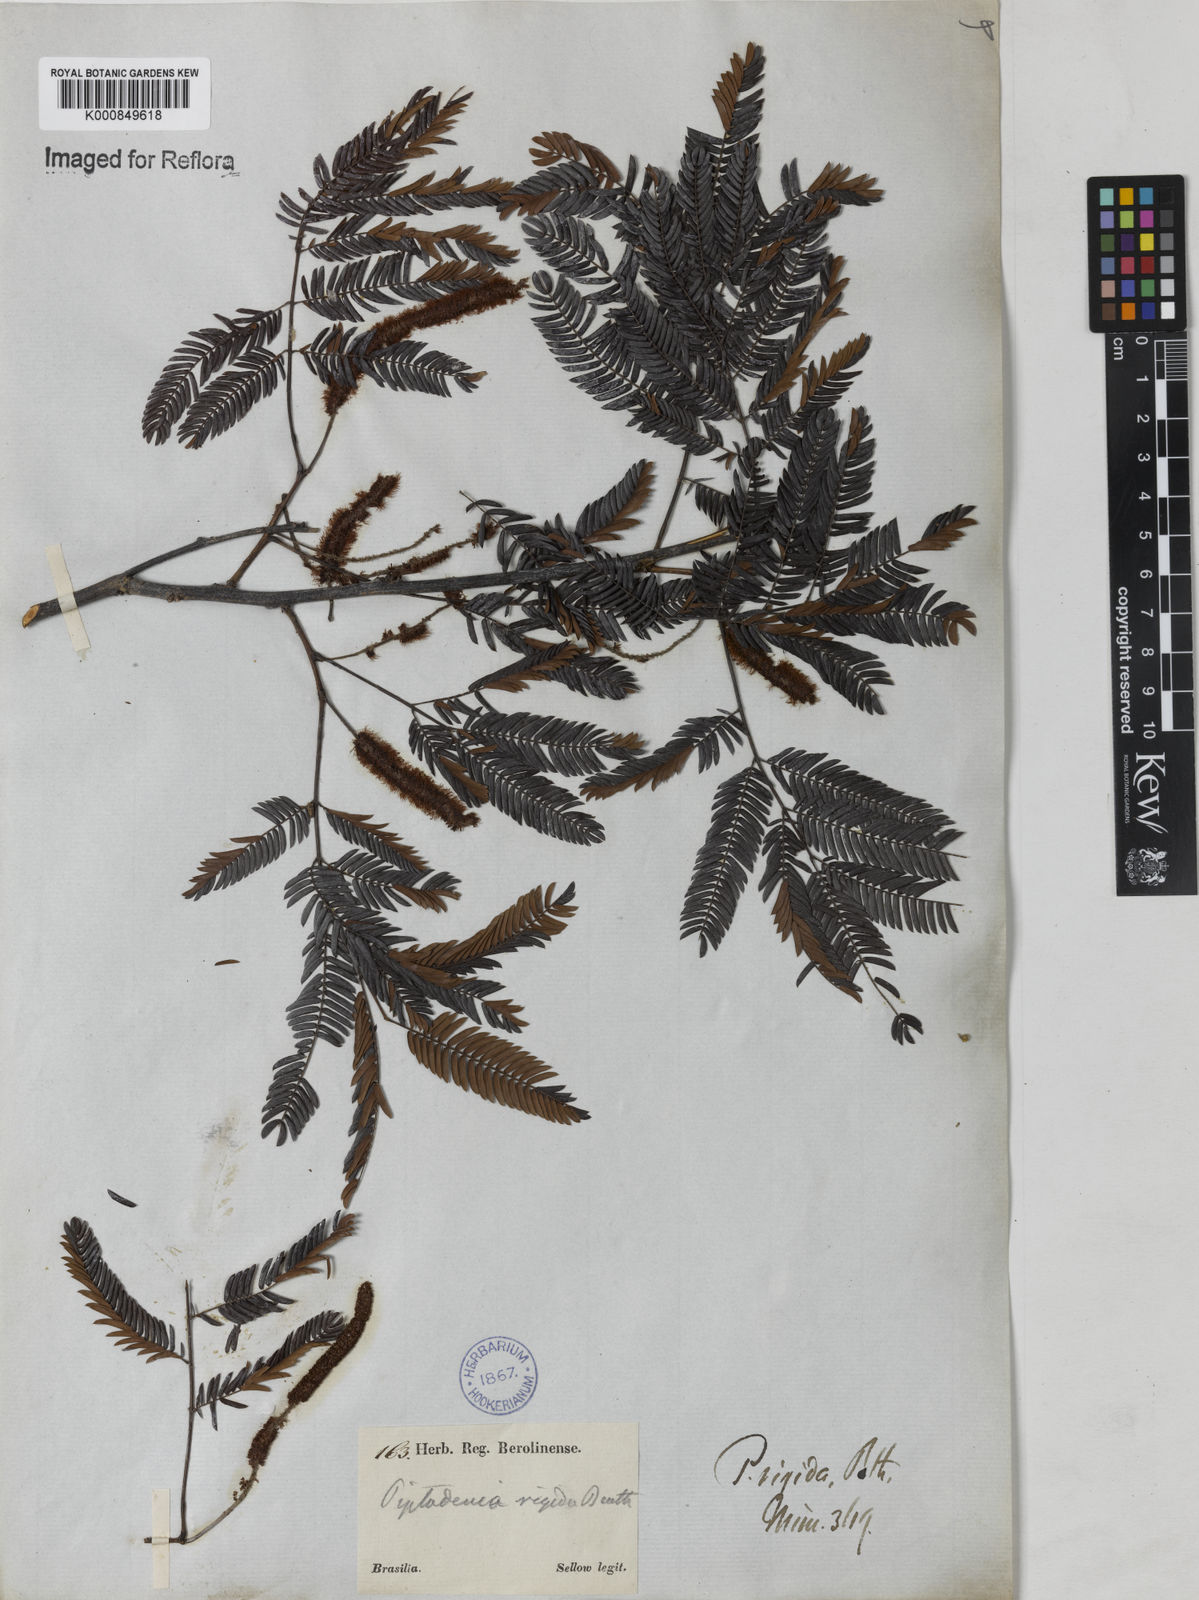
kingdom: Plantae
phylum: Tracheophyta
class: Magnoliopsida
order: Fabales
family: Fabaceae
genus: Parapiptadenia
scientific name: Parapiptadenia rigida
